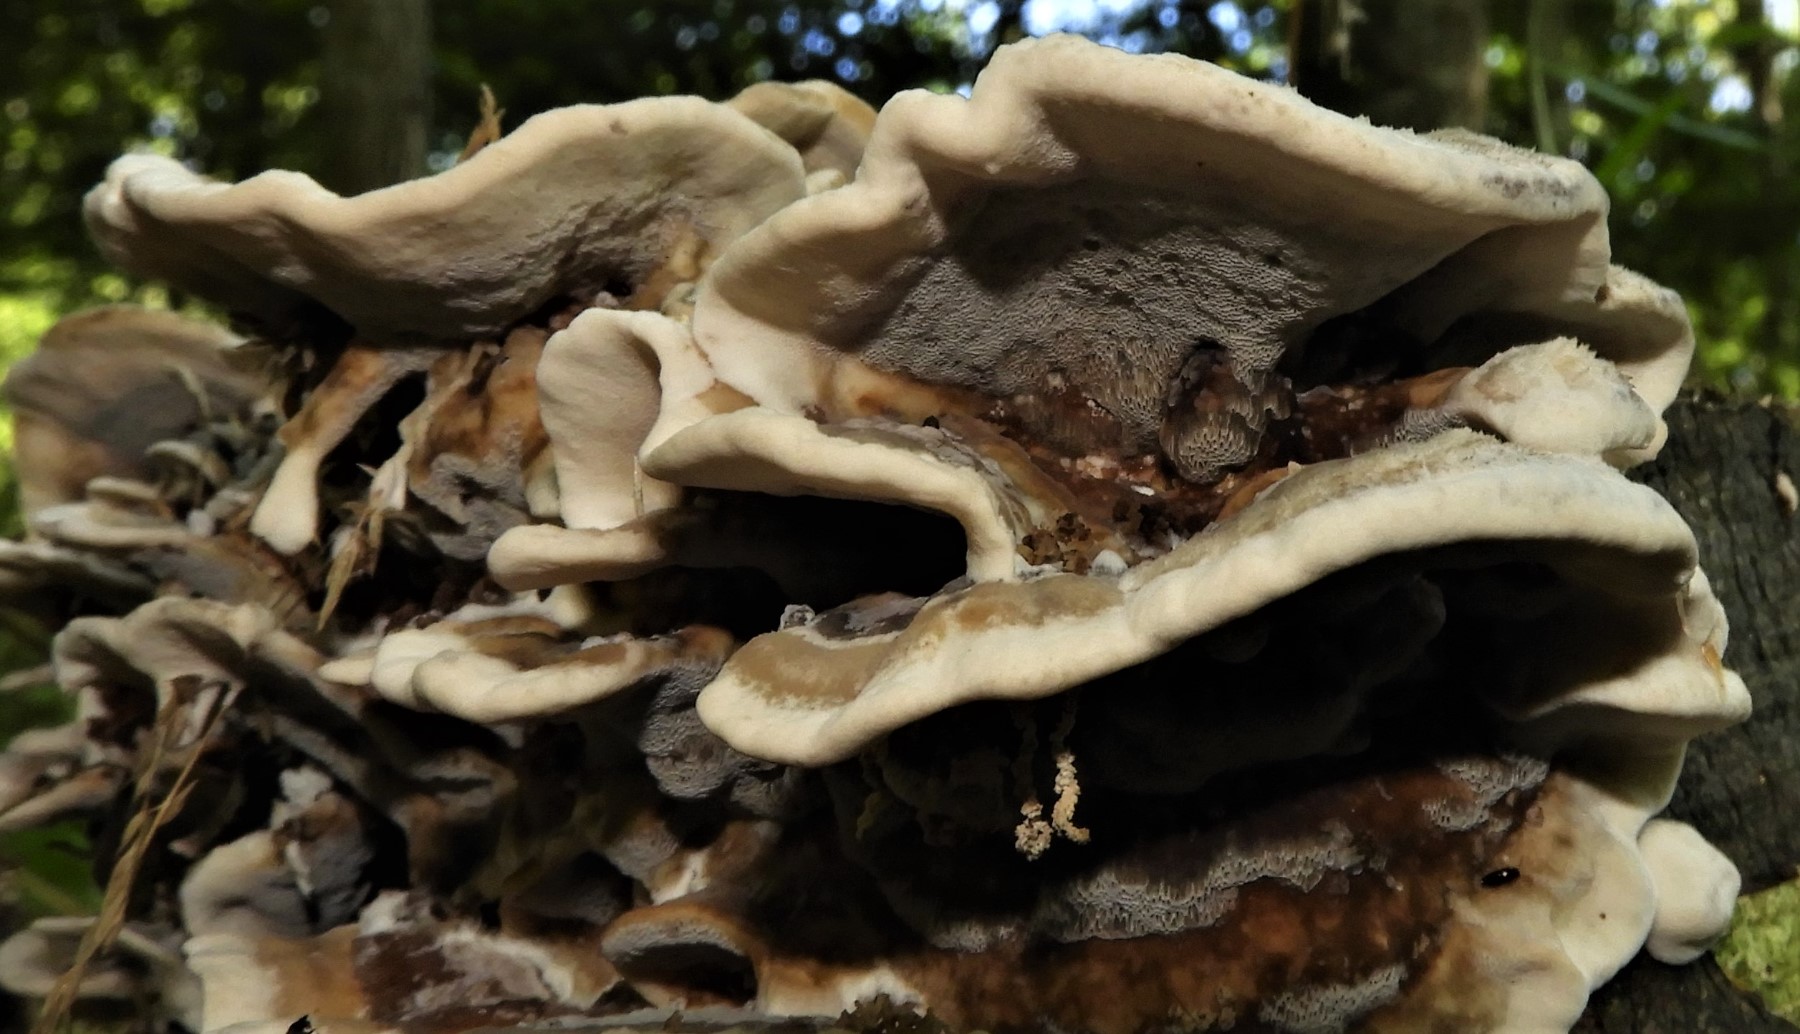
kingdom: Fungi
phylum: Basidiomycota
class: Agaricomycetes
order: Polyporales
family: Phanerochaetaceae
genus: Bjerkandera
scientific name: Bjerkandera adusta
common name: sveden sodporesvamp
